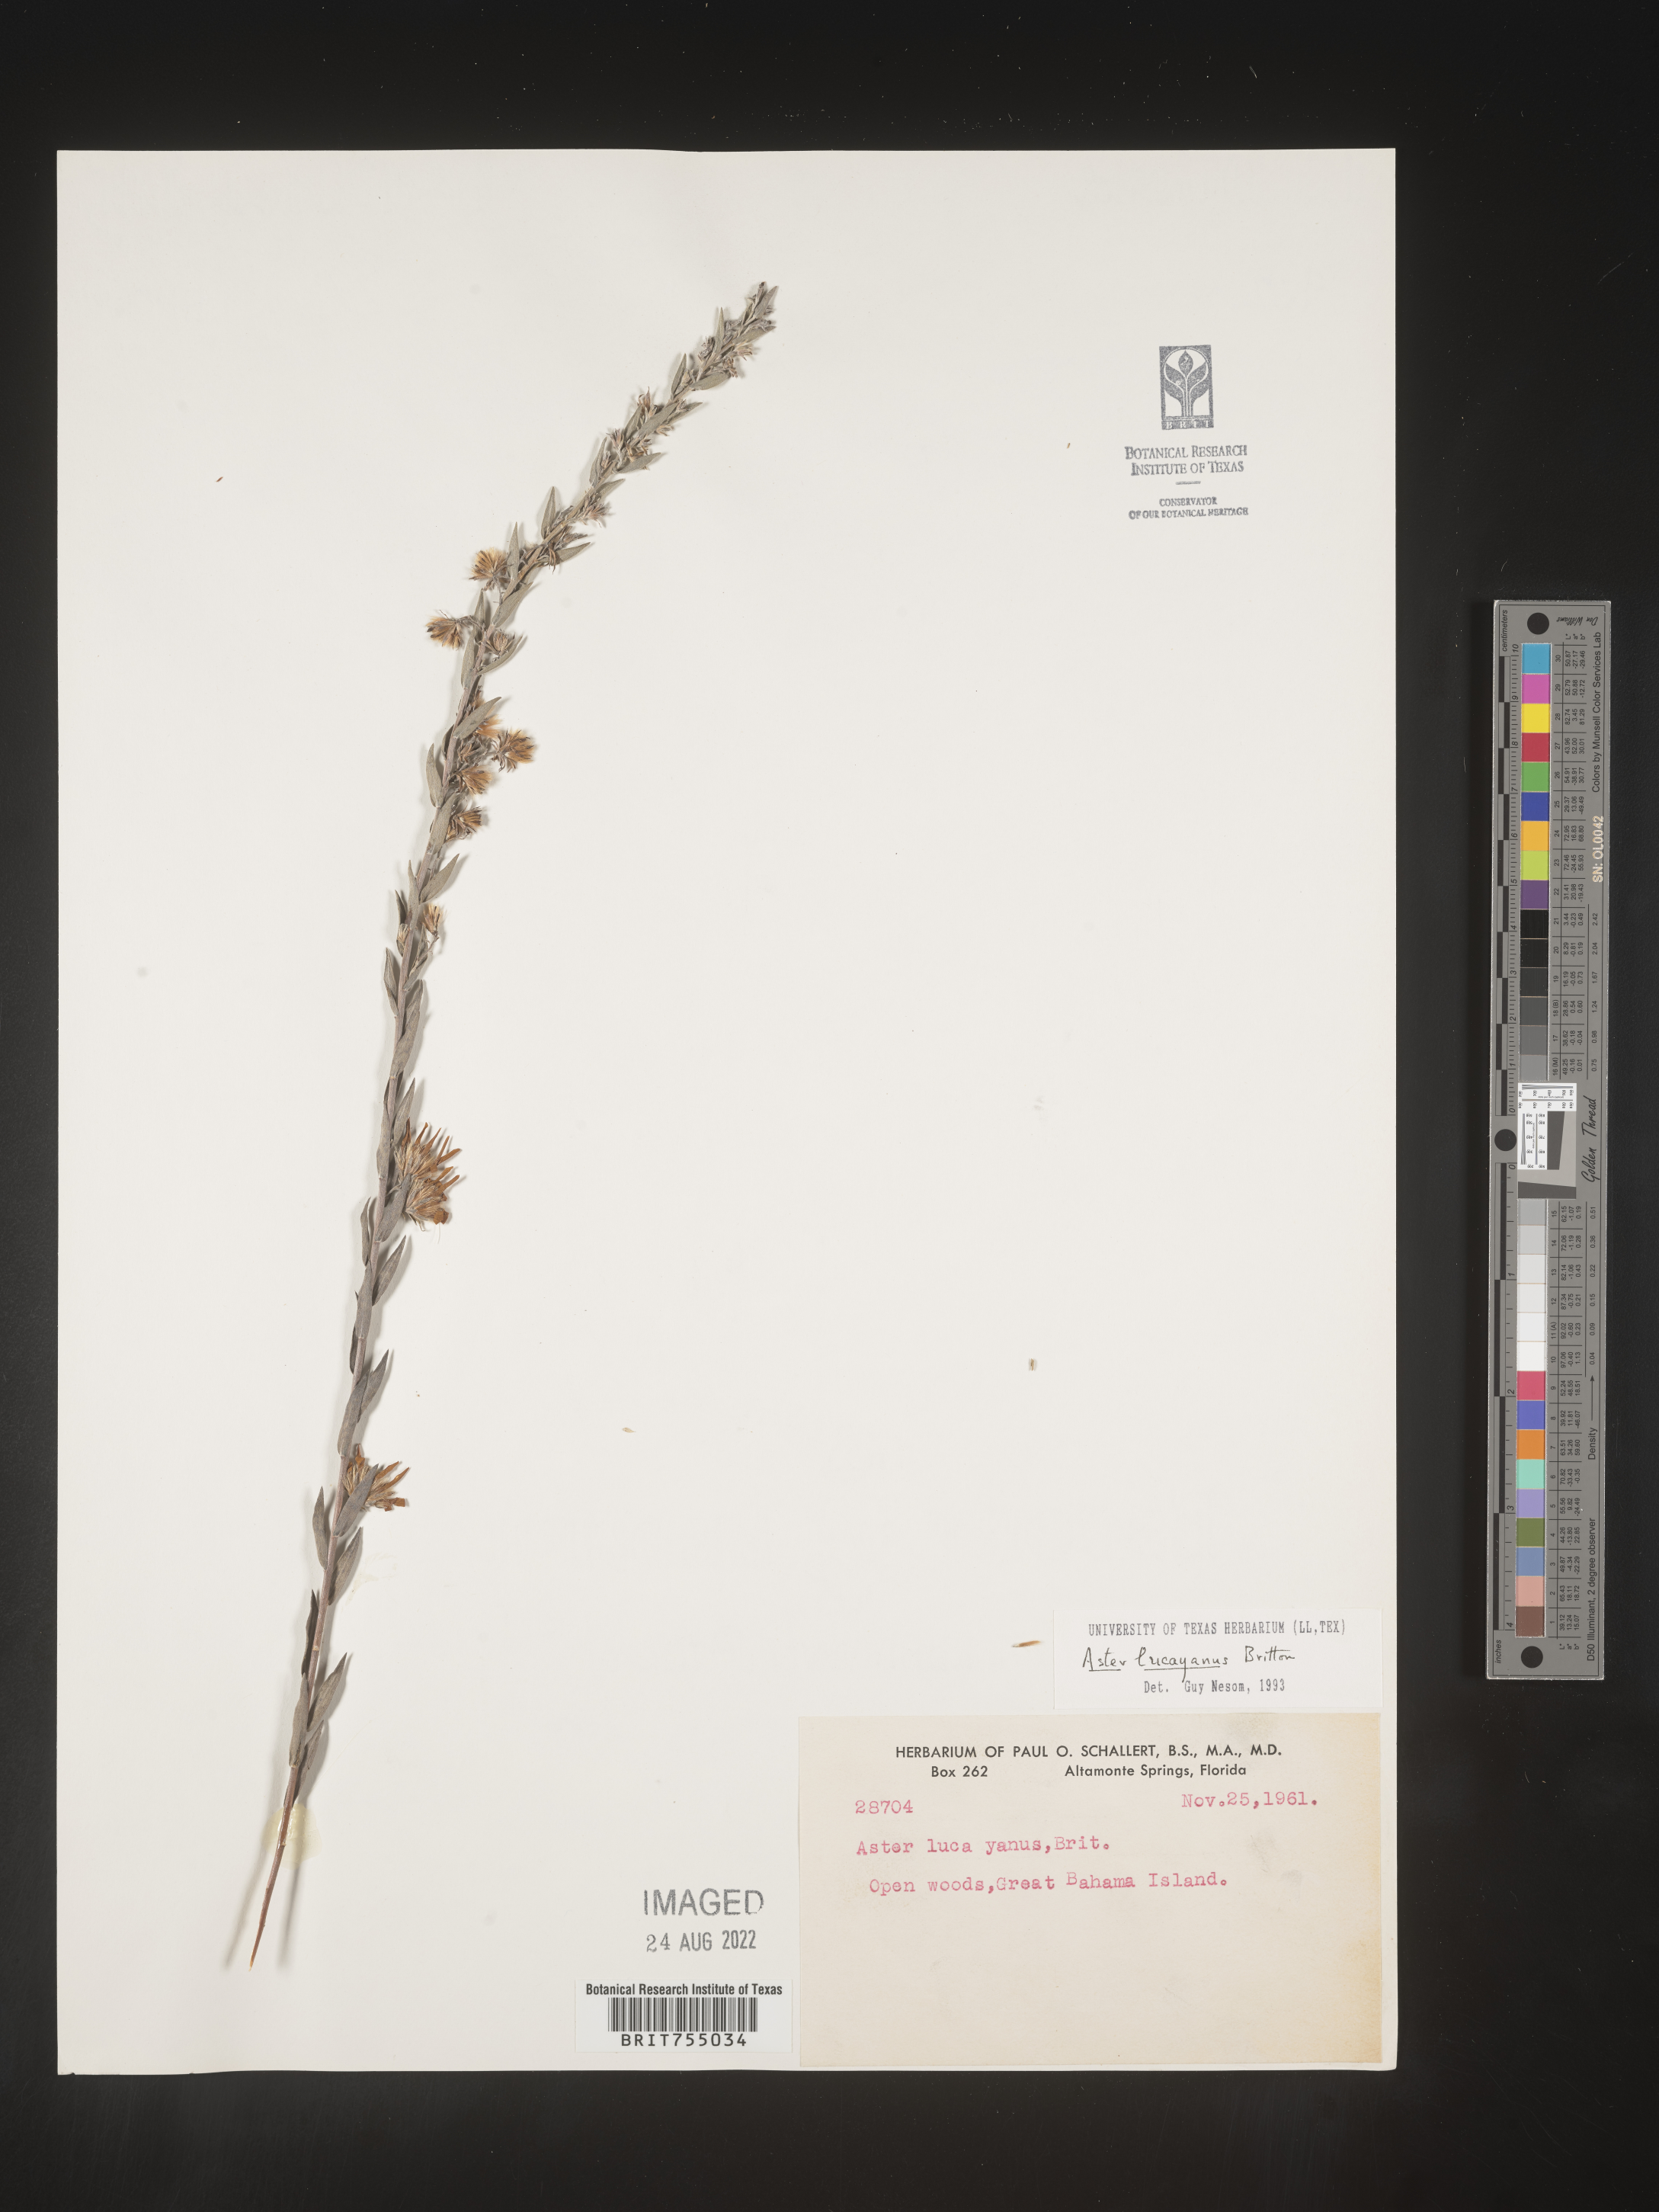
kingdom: Plantae
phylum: Tracheophyta
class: Magnoliopsida
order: Asterales
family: Asteraceae
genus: Symphyotrichum
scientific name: Symphyotrichum
